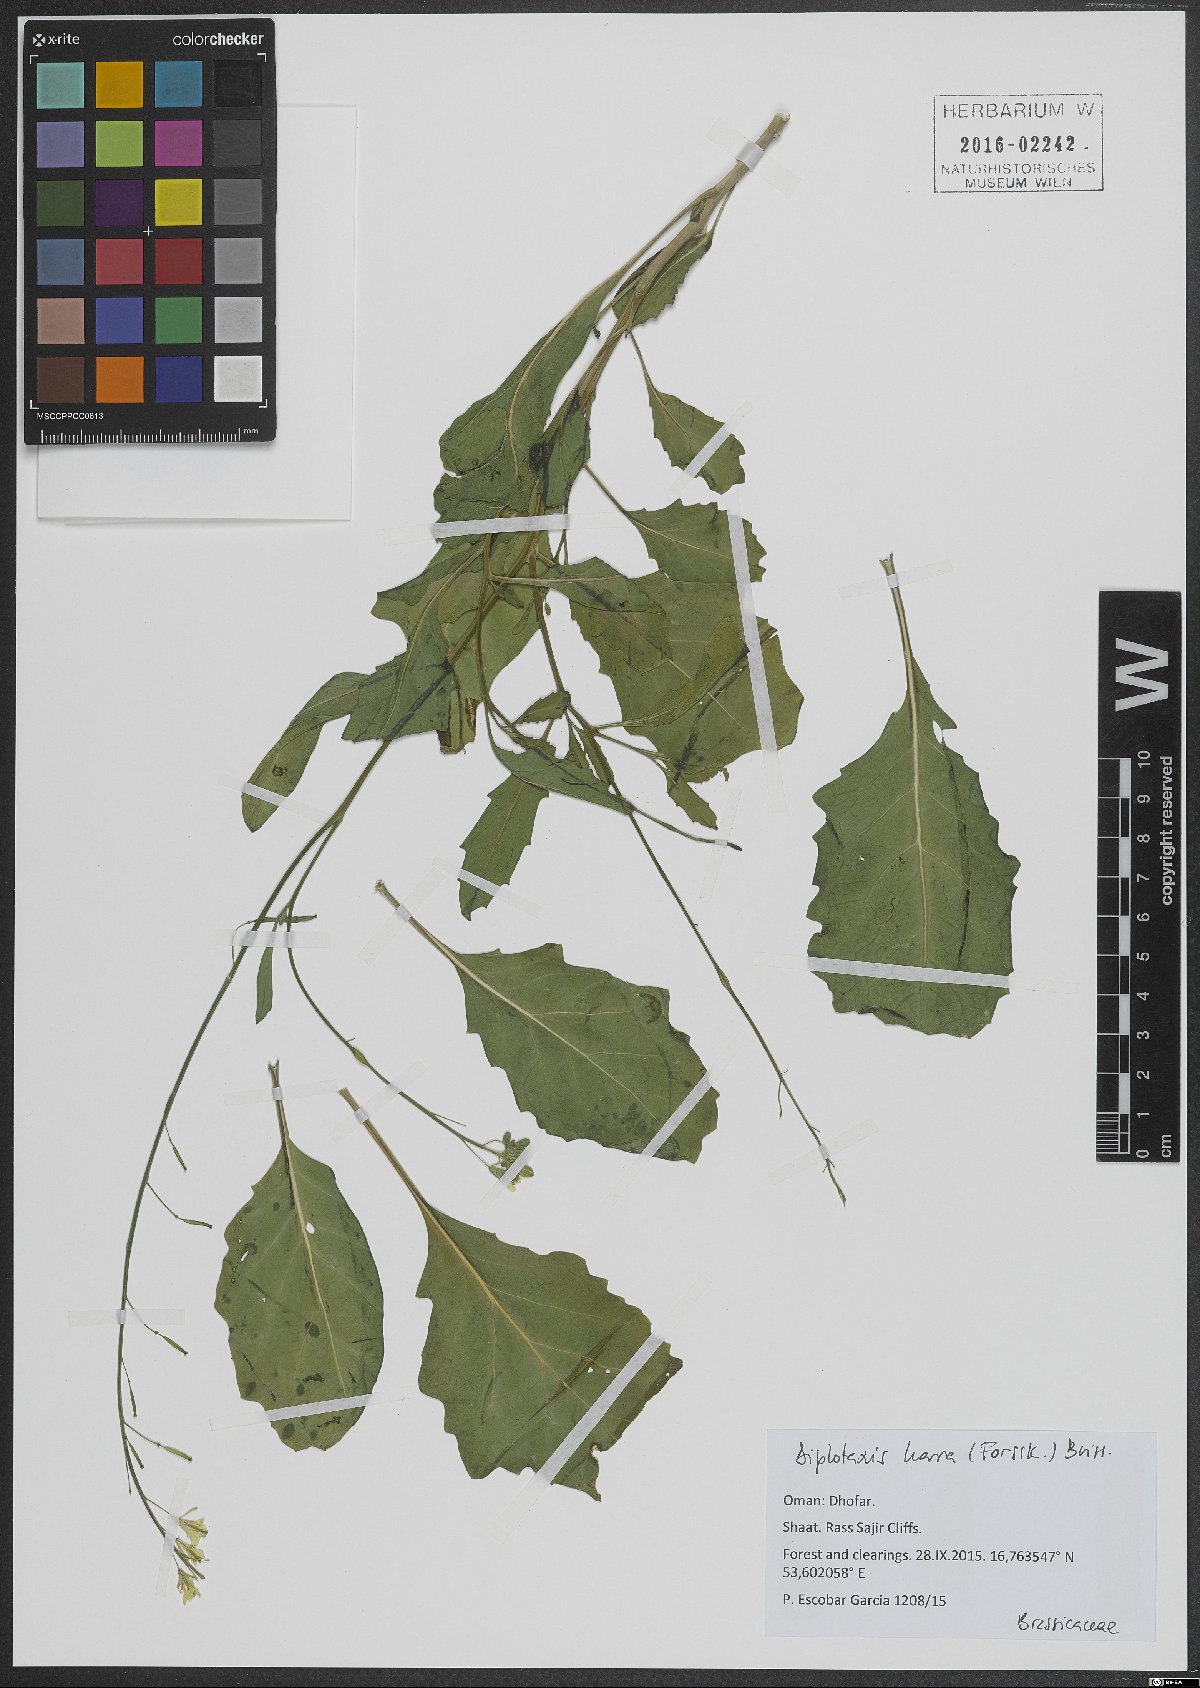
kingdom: Plantae
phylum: Tracheophyta
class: Magnoliopsida
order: Brassicales
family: Brassicaceae
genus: Diplotaxis
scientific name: Diplotaxis harra
